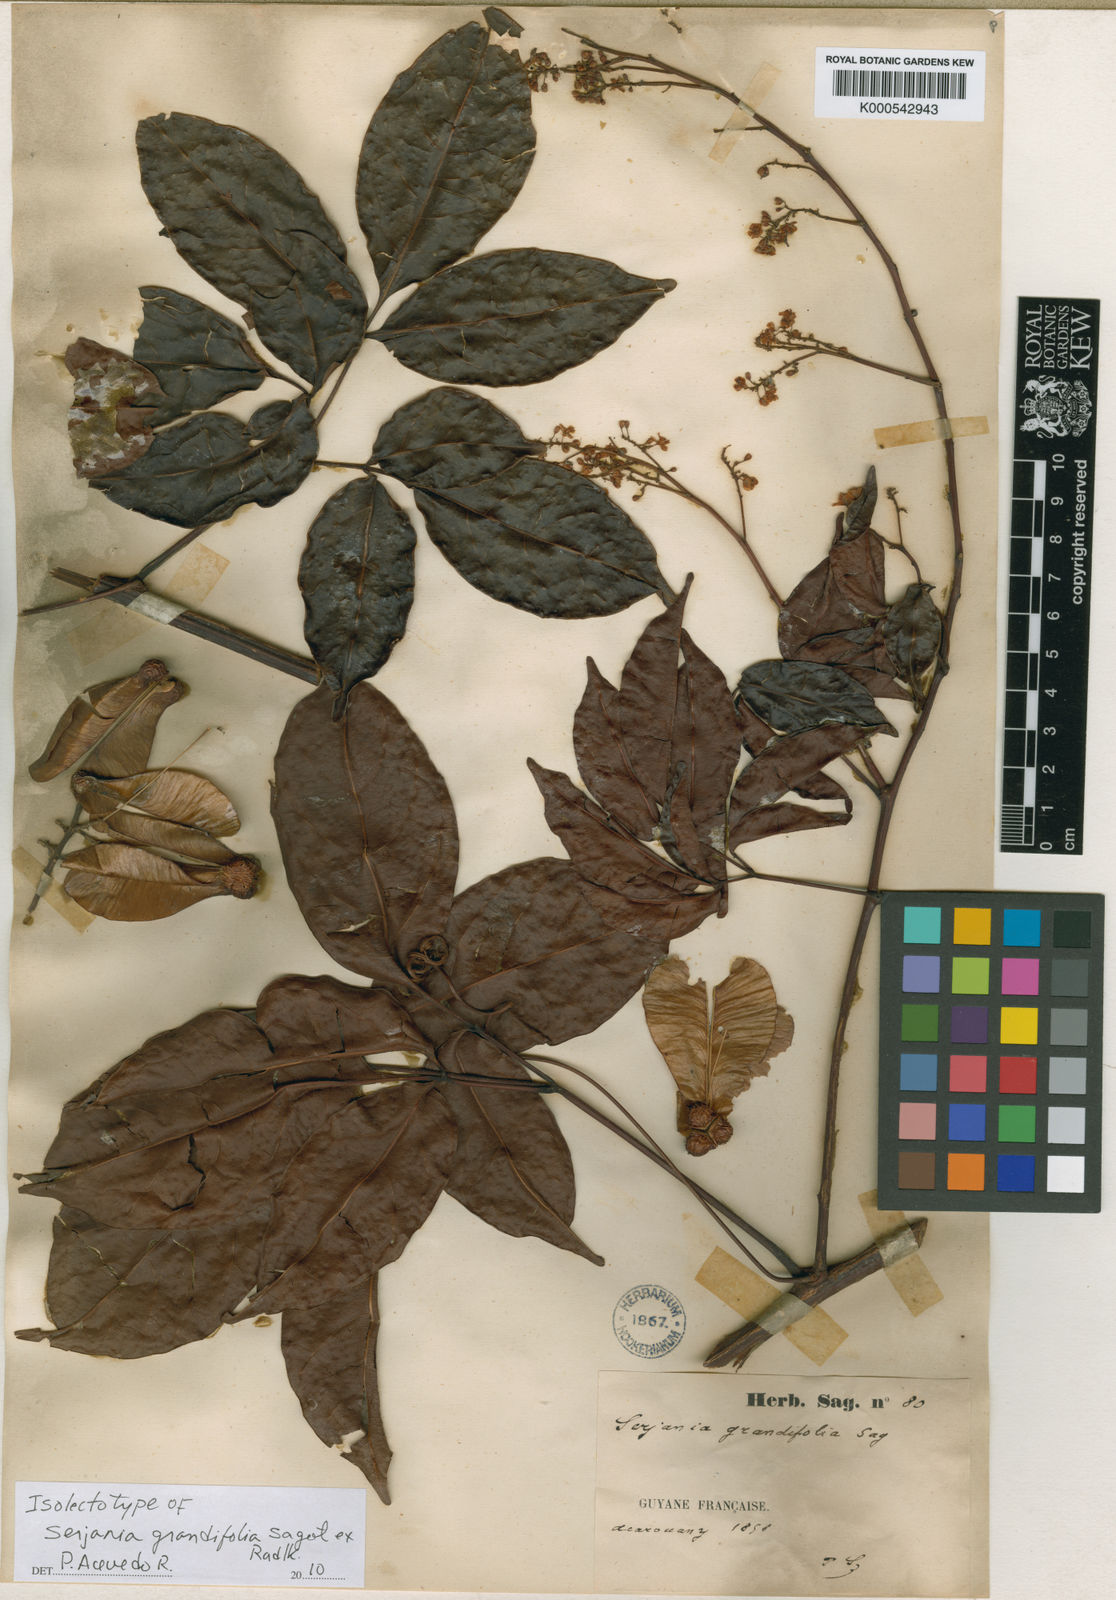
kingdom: Plantae
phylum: Tracheophyta
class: Magnoliopsida
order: Sapindales
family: Sapindaceae
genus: Serjania
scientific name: Serjania grandifolia
